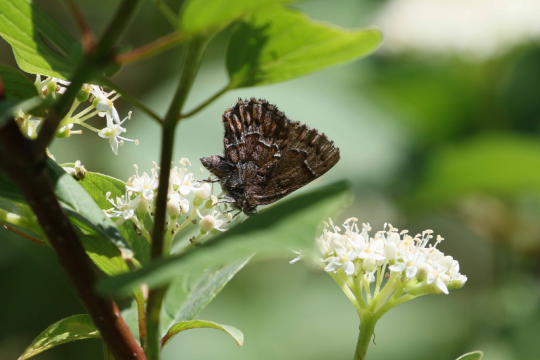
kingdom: Animalia
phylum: Arthropoda
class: Insecta
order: Lepidoptera
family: Lycaenidae
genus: Incisalia
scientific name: Incisalia niphon
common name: Eastern Pine Elfin
